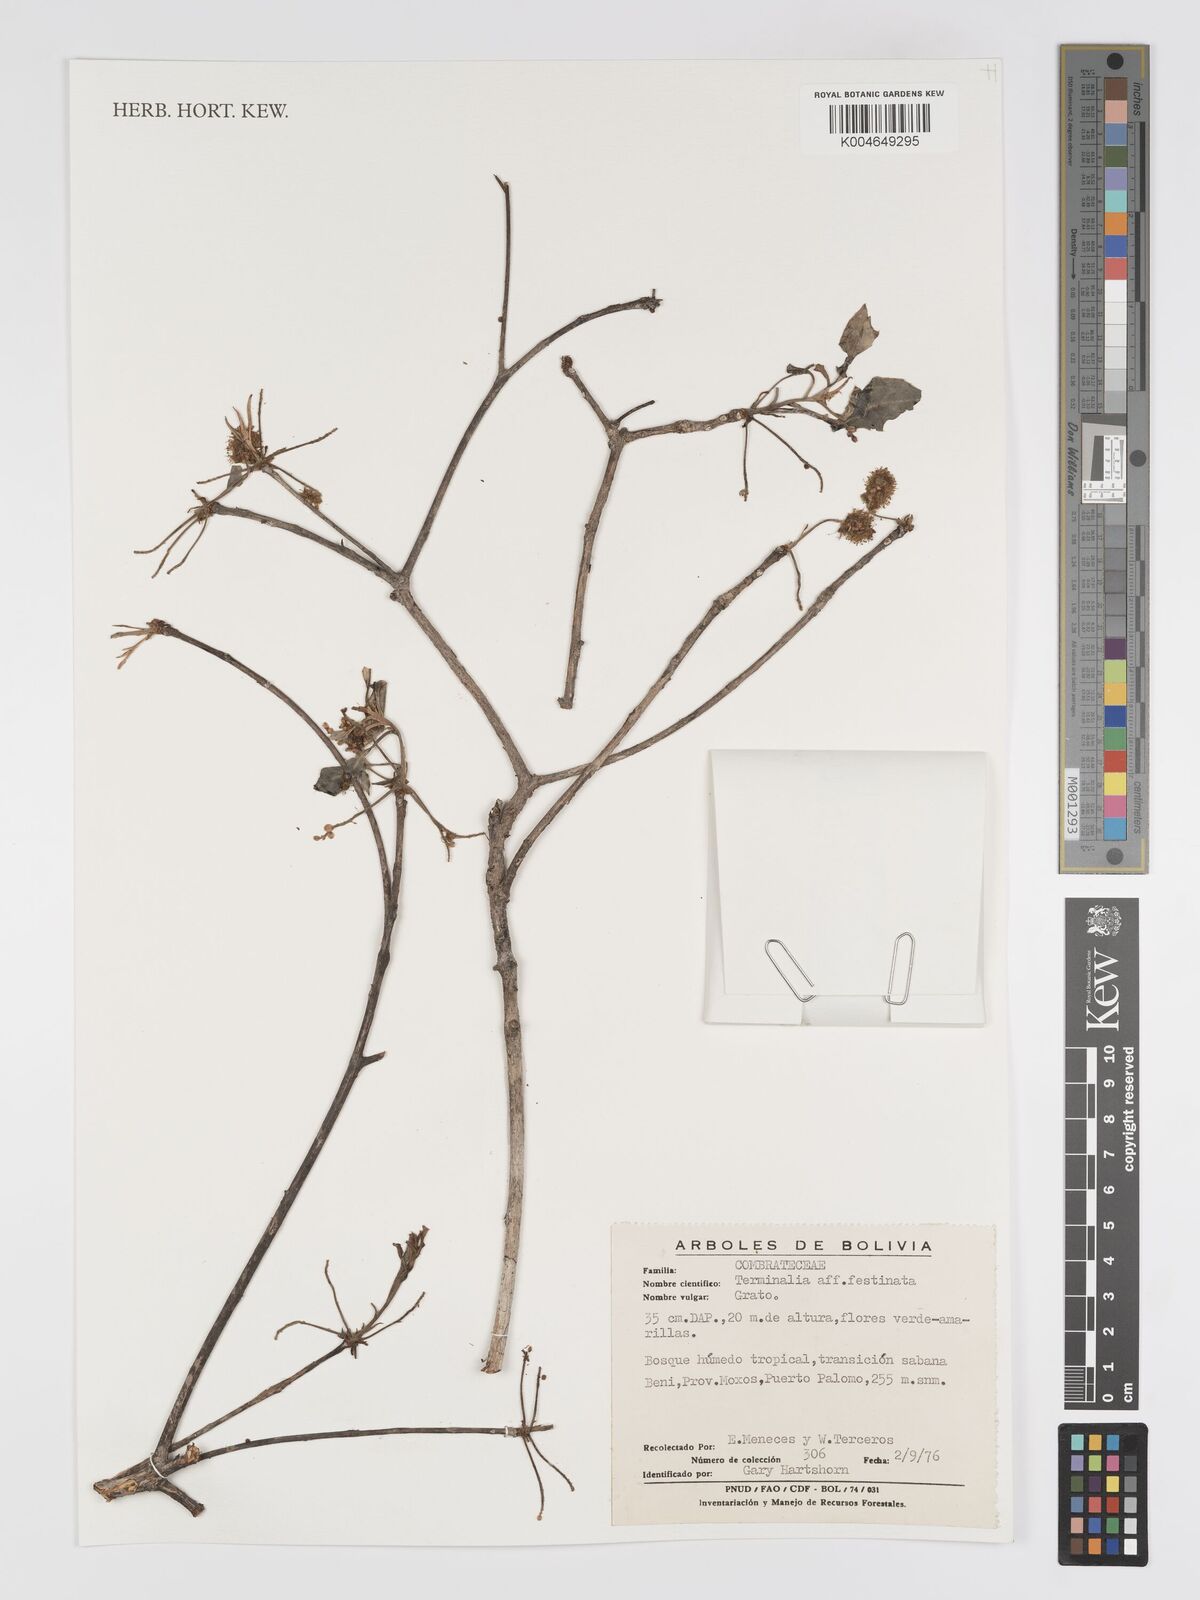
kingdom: Plantae
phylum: Tracheophyta
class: Magnoliopsida
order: Myrtales
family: Combretaceae
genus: Terminalia
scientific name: Terminalia argentea
